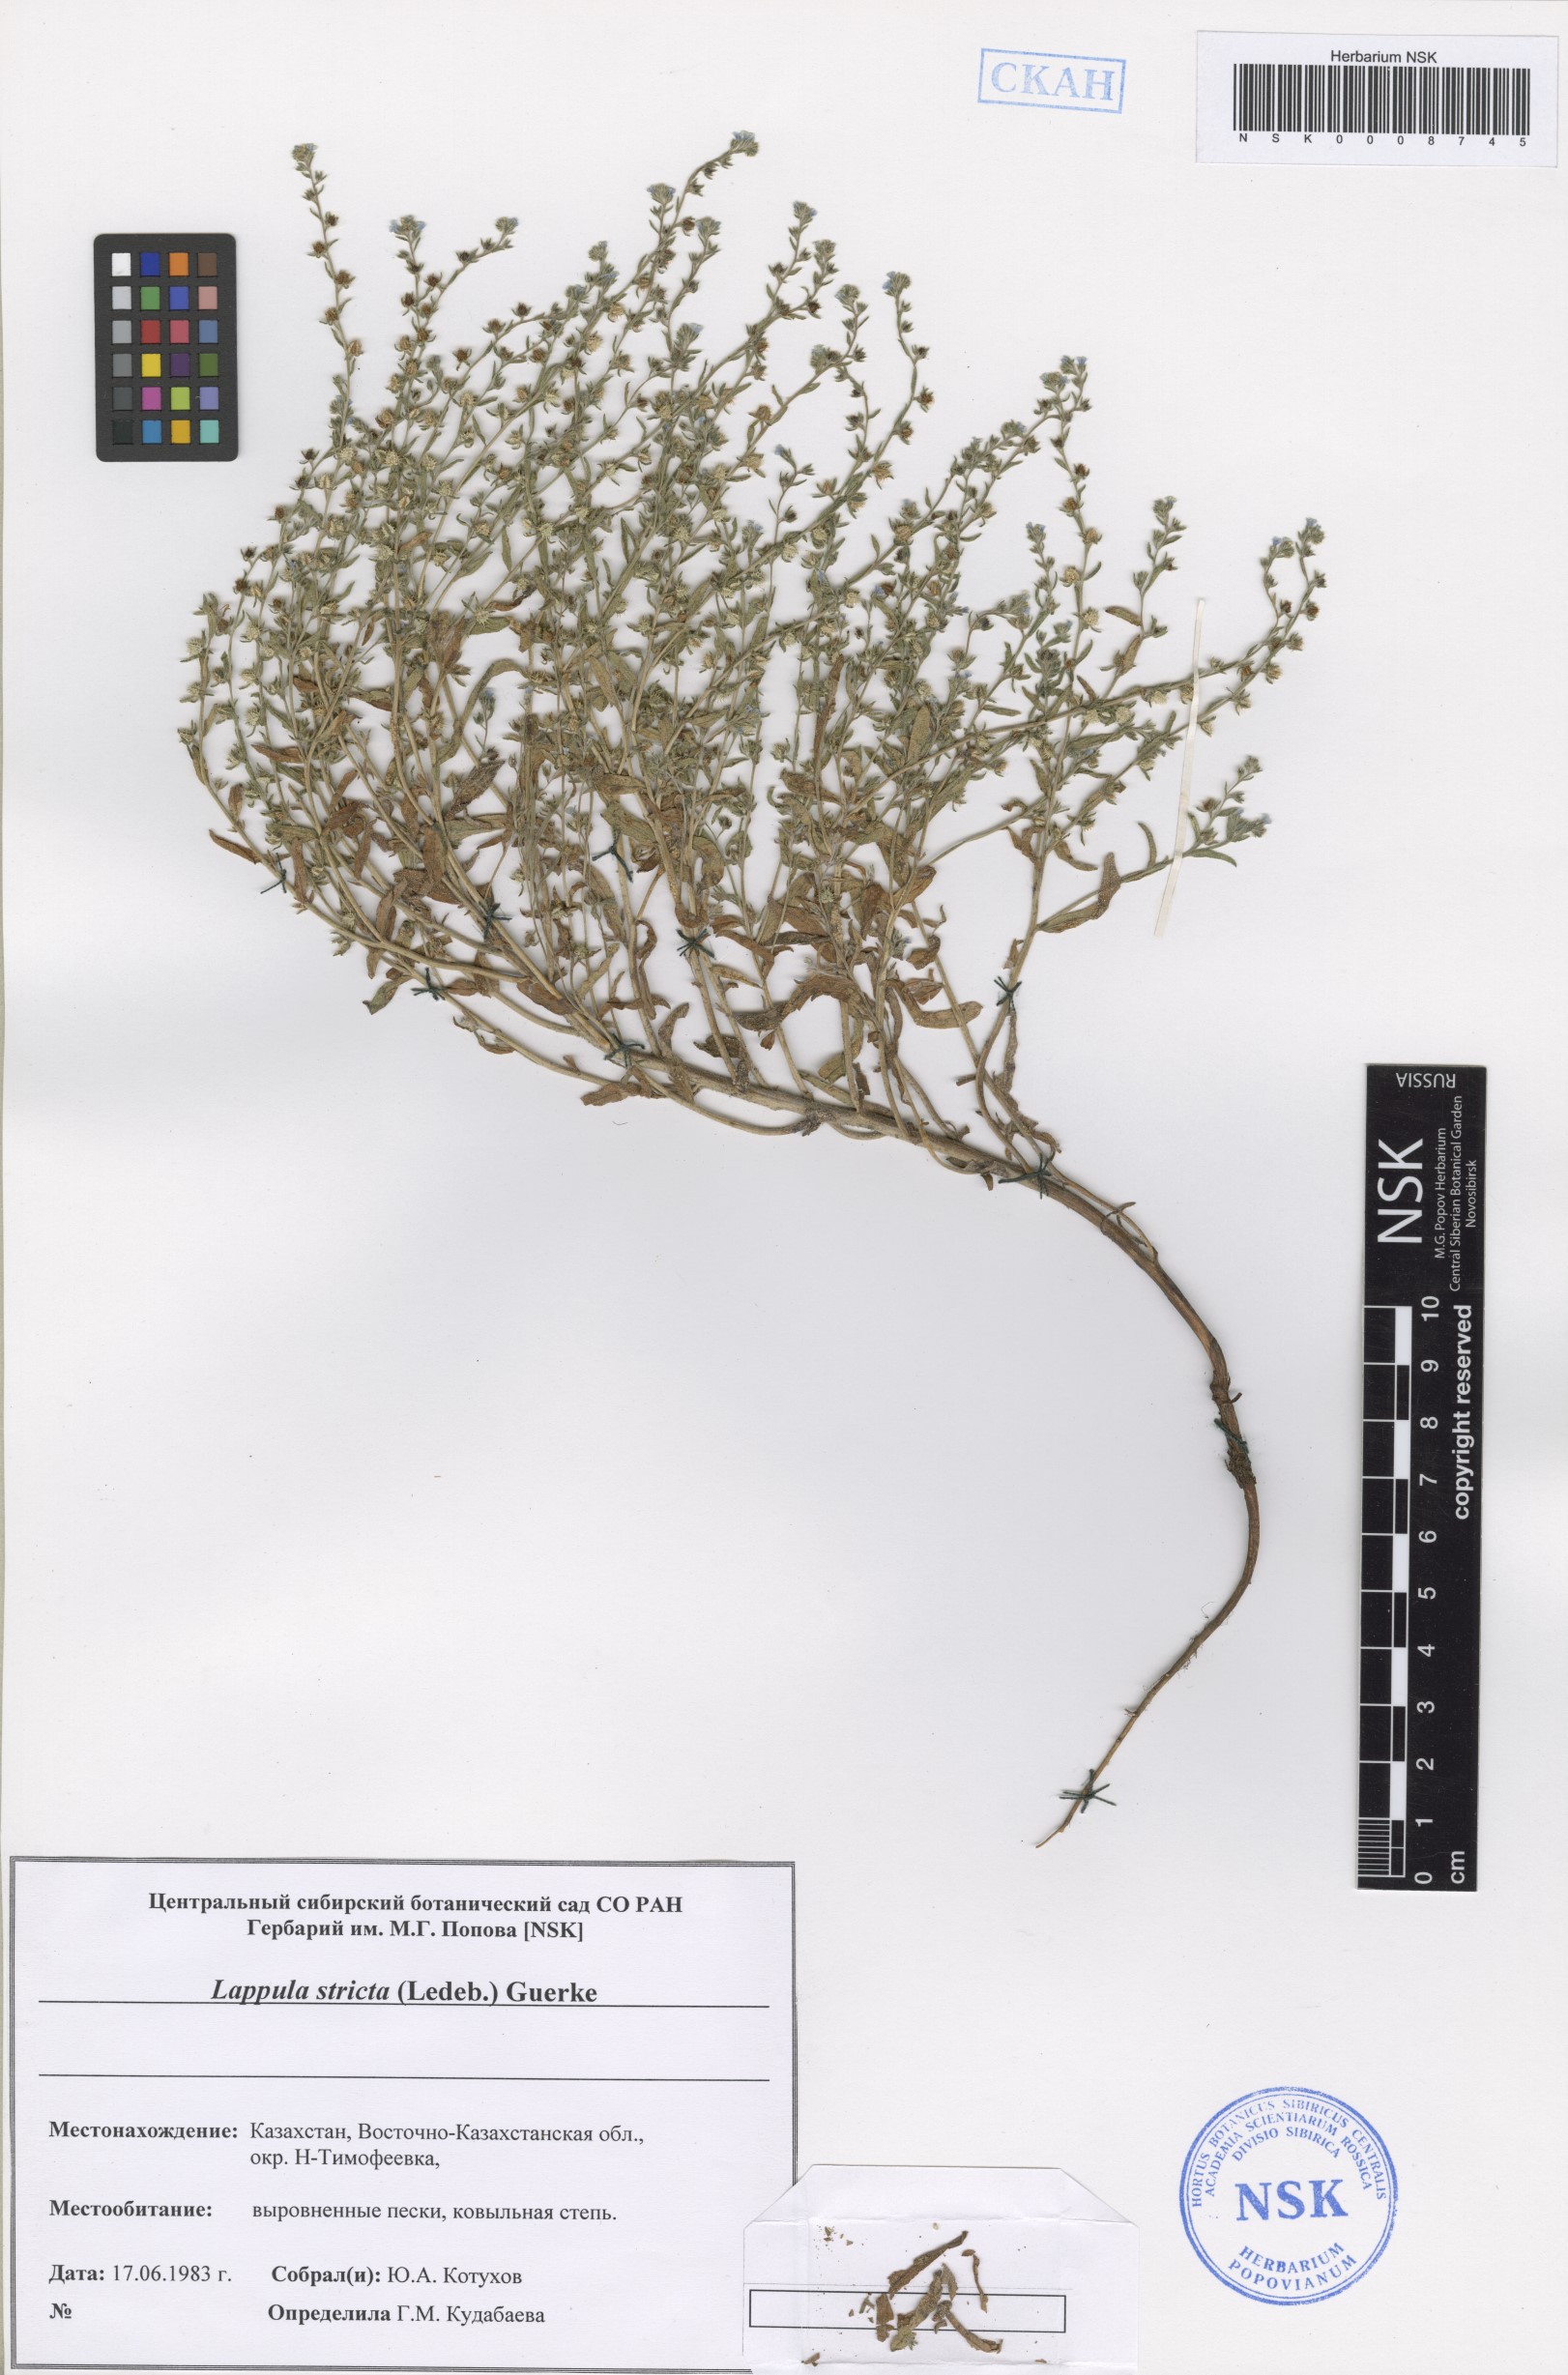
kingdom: Plantae
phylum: Tracheophyta
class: Magnoliopsida
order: Boraginales
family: Boraginaceae
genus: Lappula
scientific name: Lappula stricta
